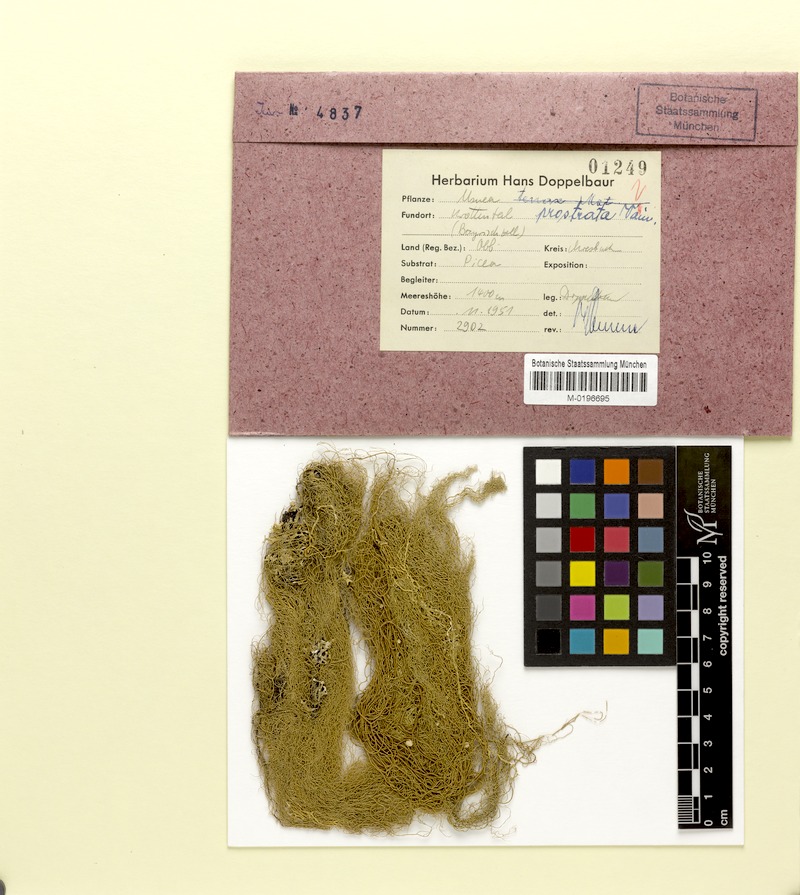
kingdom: Fungi
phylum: Ascomycota
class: Lecanoromycetes
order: Lecanorales
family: Parmeliaceae
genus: Usnea
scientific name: Usnea prostrata
